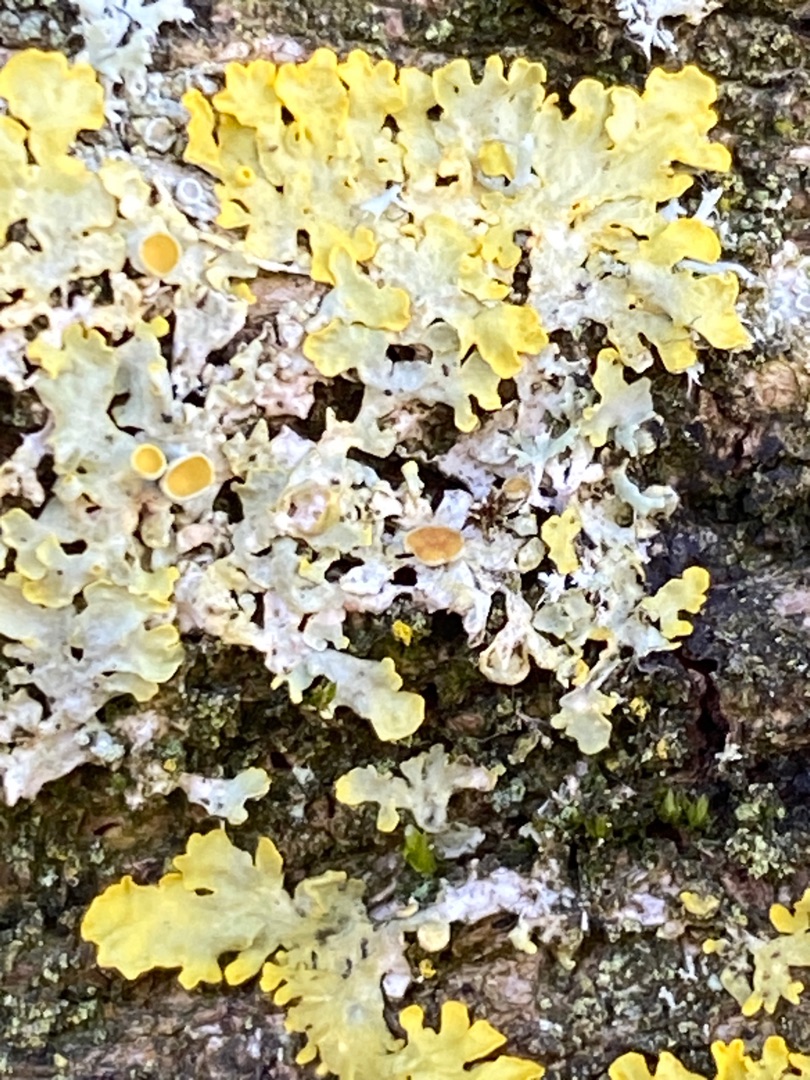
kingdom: Fungi
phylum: Ascomycota
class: Lecanoromycetes
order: Teloschistales
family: Teloschistaceae
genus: Xanthoria
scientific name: Xanthoria parietina
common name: Almindelig væggelav
